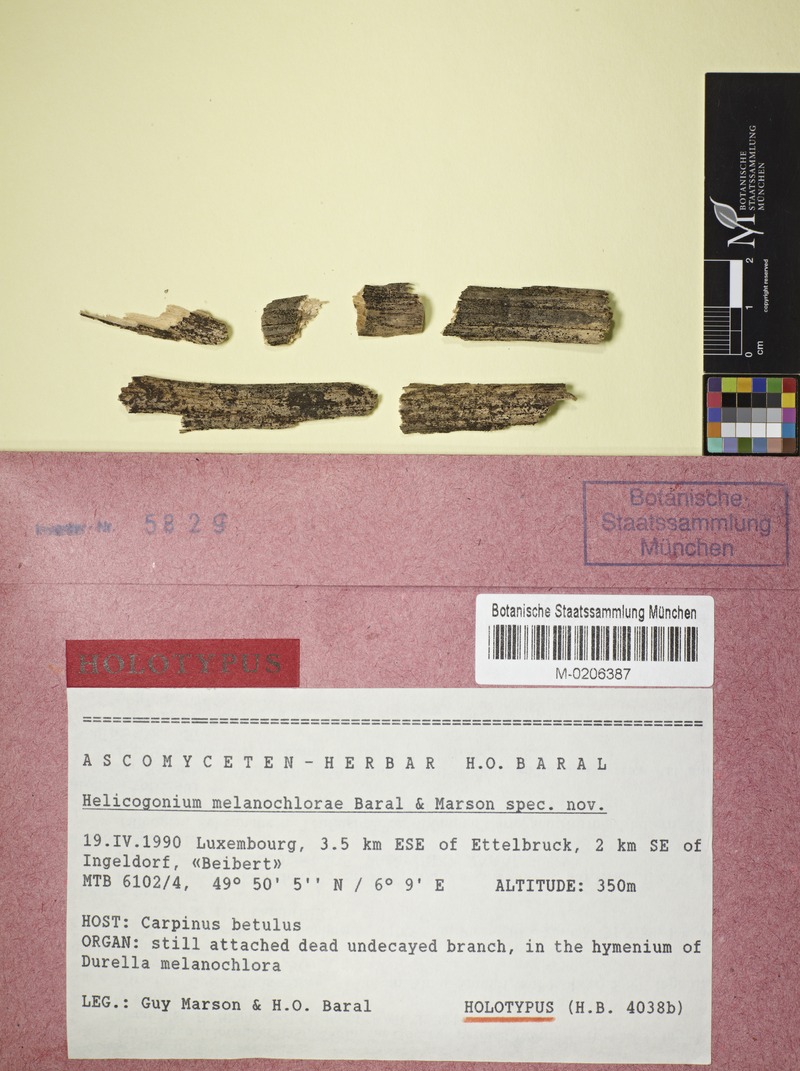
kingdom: Fungi
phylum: Ascomycota
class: Leotiomycetes
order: Phacidiales
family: Helicogoniaceae
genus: Helicogonium
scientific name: Helicogonium melanochlorae
